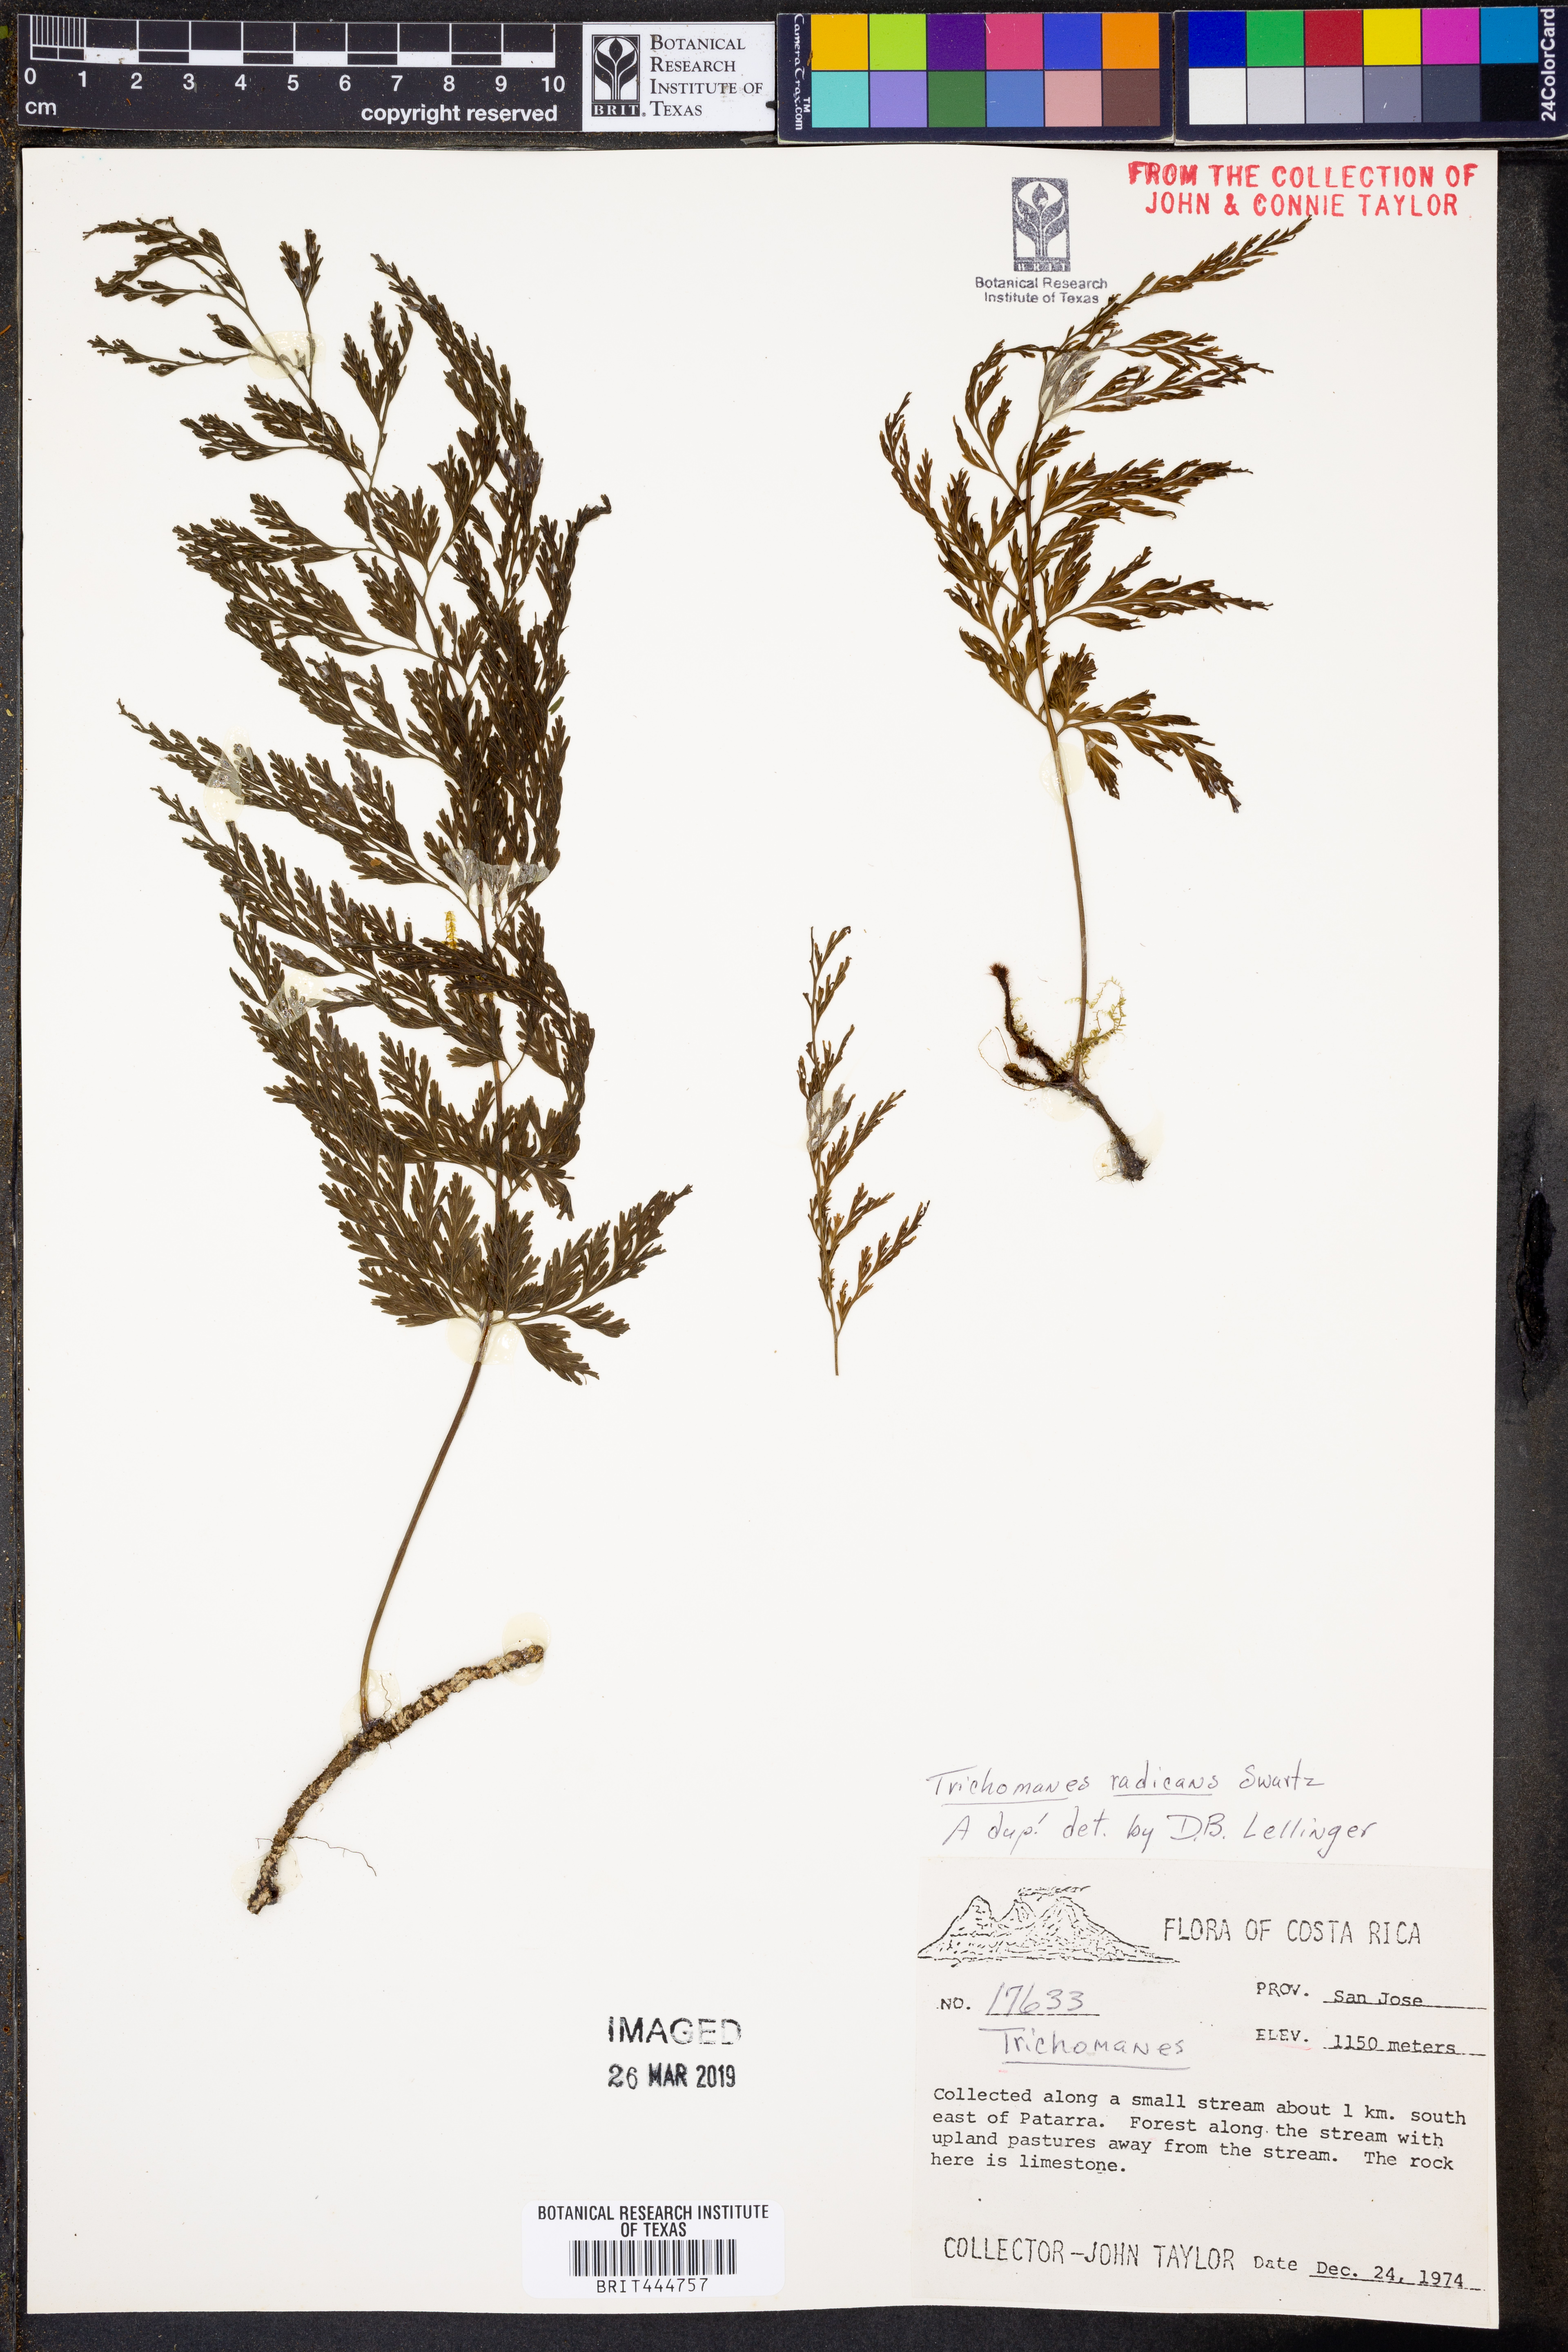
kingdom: Plantae
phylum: Tracheophyta
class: Polypodiopsida
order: Hymenophyllales
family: Hymenophyllaceae
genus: Vandenboschia
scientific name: Vandenboschia radicans
